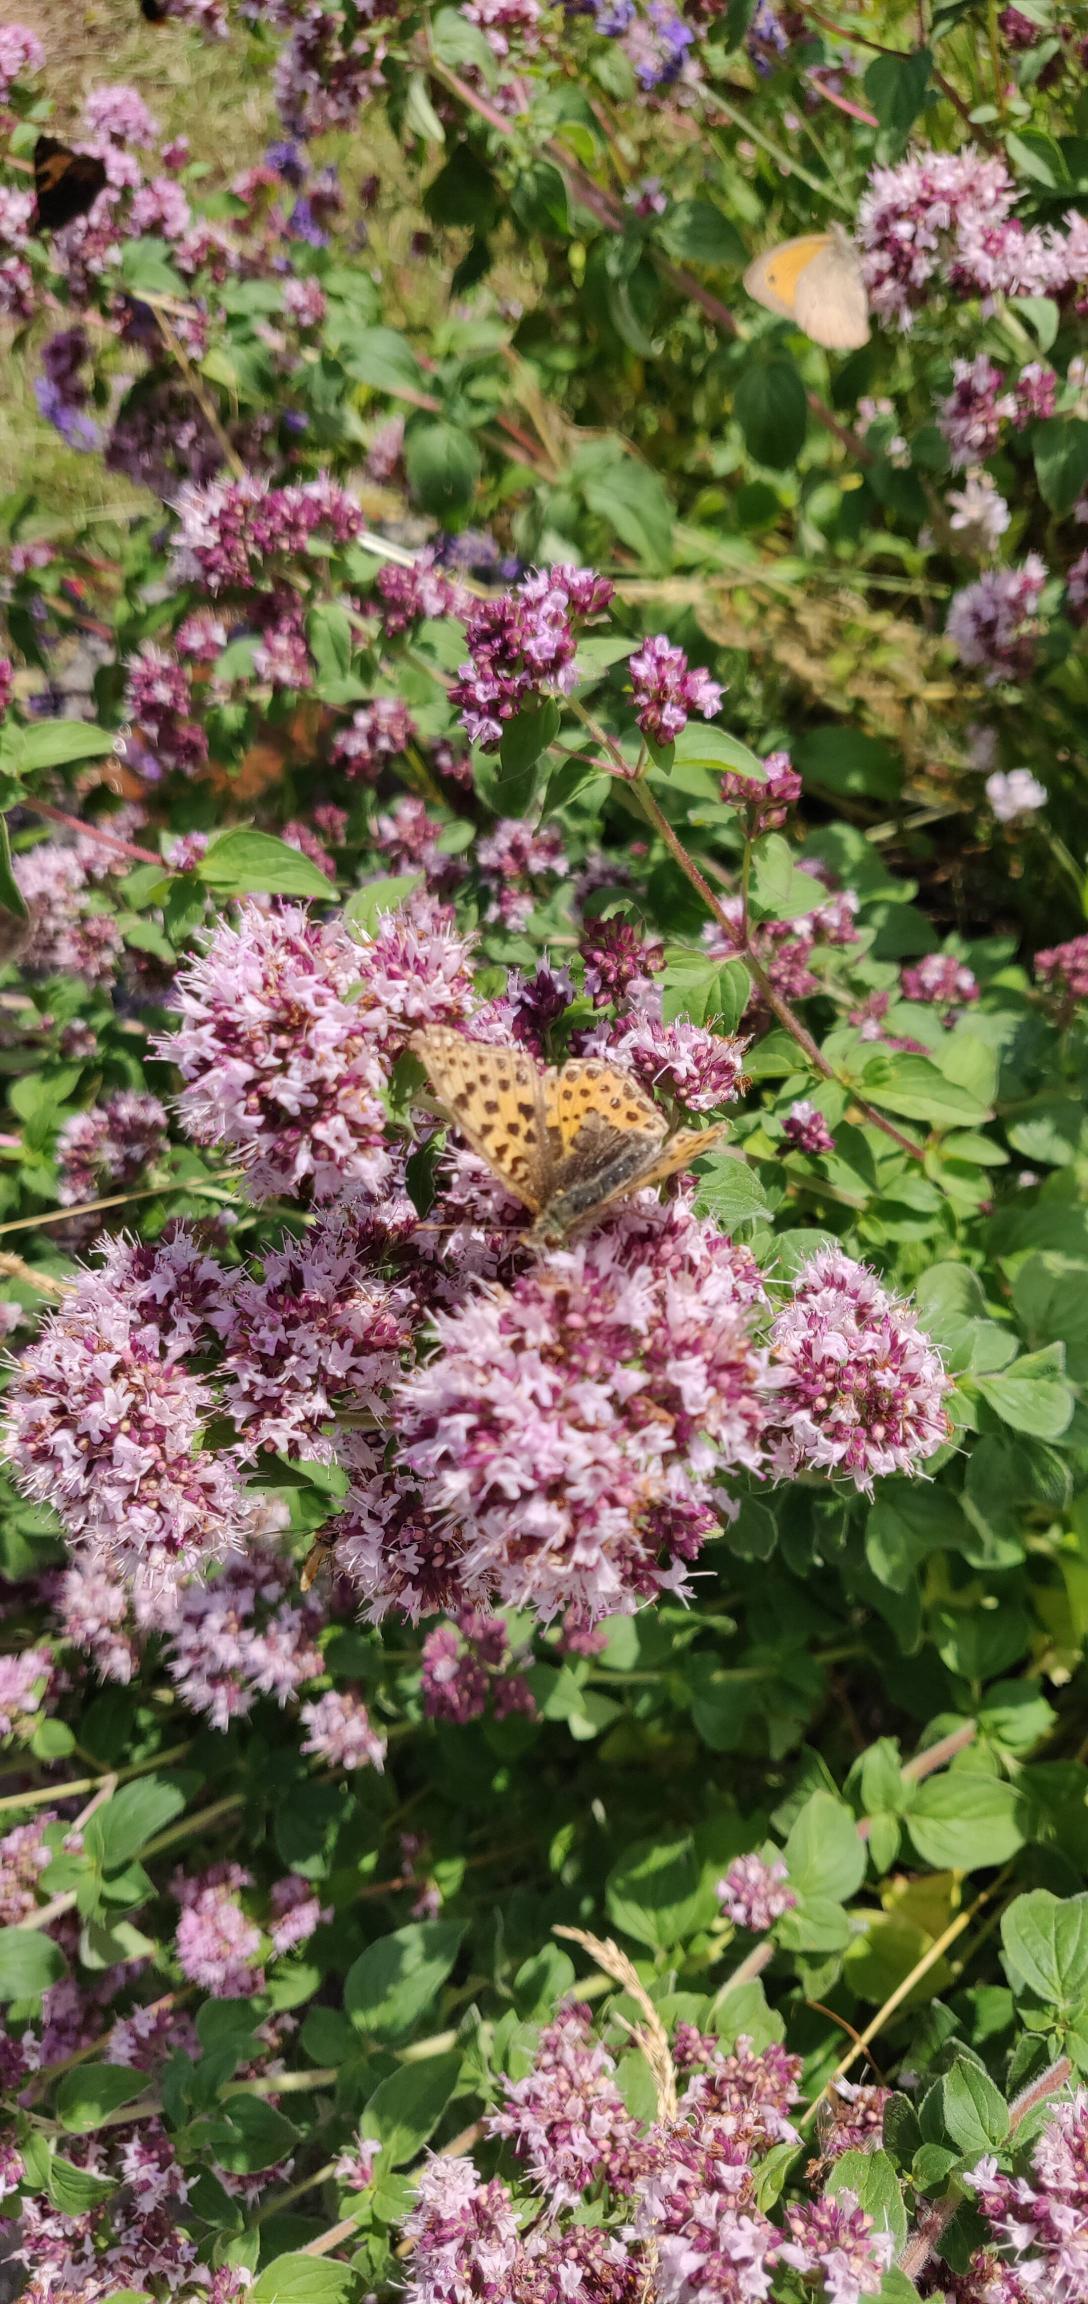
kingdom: Animalia
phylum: Arthropoda
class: Insecta
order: Lepidoptera
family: Nymphalidae
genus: Issoria
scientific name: Issoria lathonia
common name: Storplettet perlemorsommerfugl
